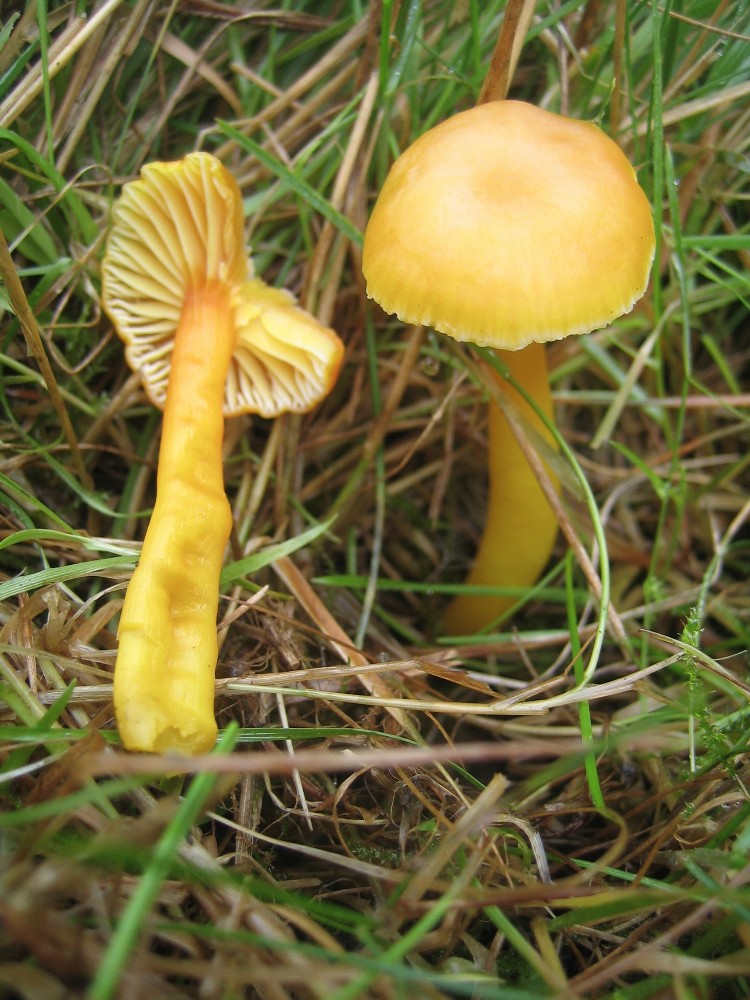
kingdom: Fungi
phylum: Basidiomycota
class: Agaricomycetes
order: Agaricales
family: Hygrophoraceae
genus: Hygrocybe
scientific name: Hygrocybe ceracea
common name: voksgul vokshat
